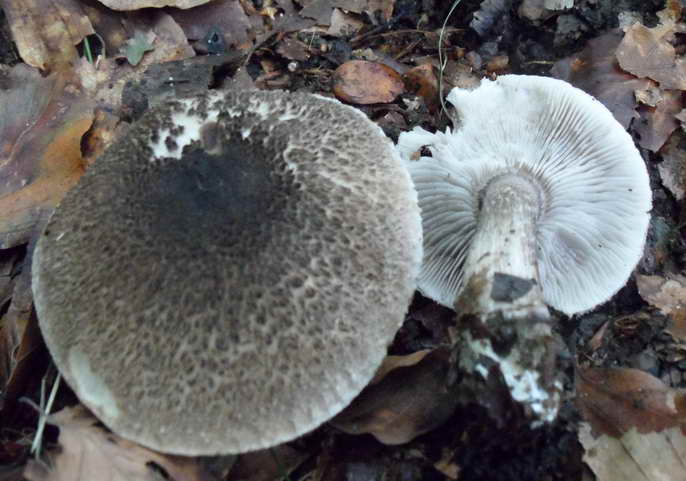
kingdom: Fungi
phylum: Basidiomycota
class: Agaricomycetes
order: Agaricales
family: Tricholomataceae
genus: Tricholoma
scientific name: Tricholoma scalpturatum
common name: gulplettet ridderhat
